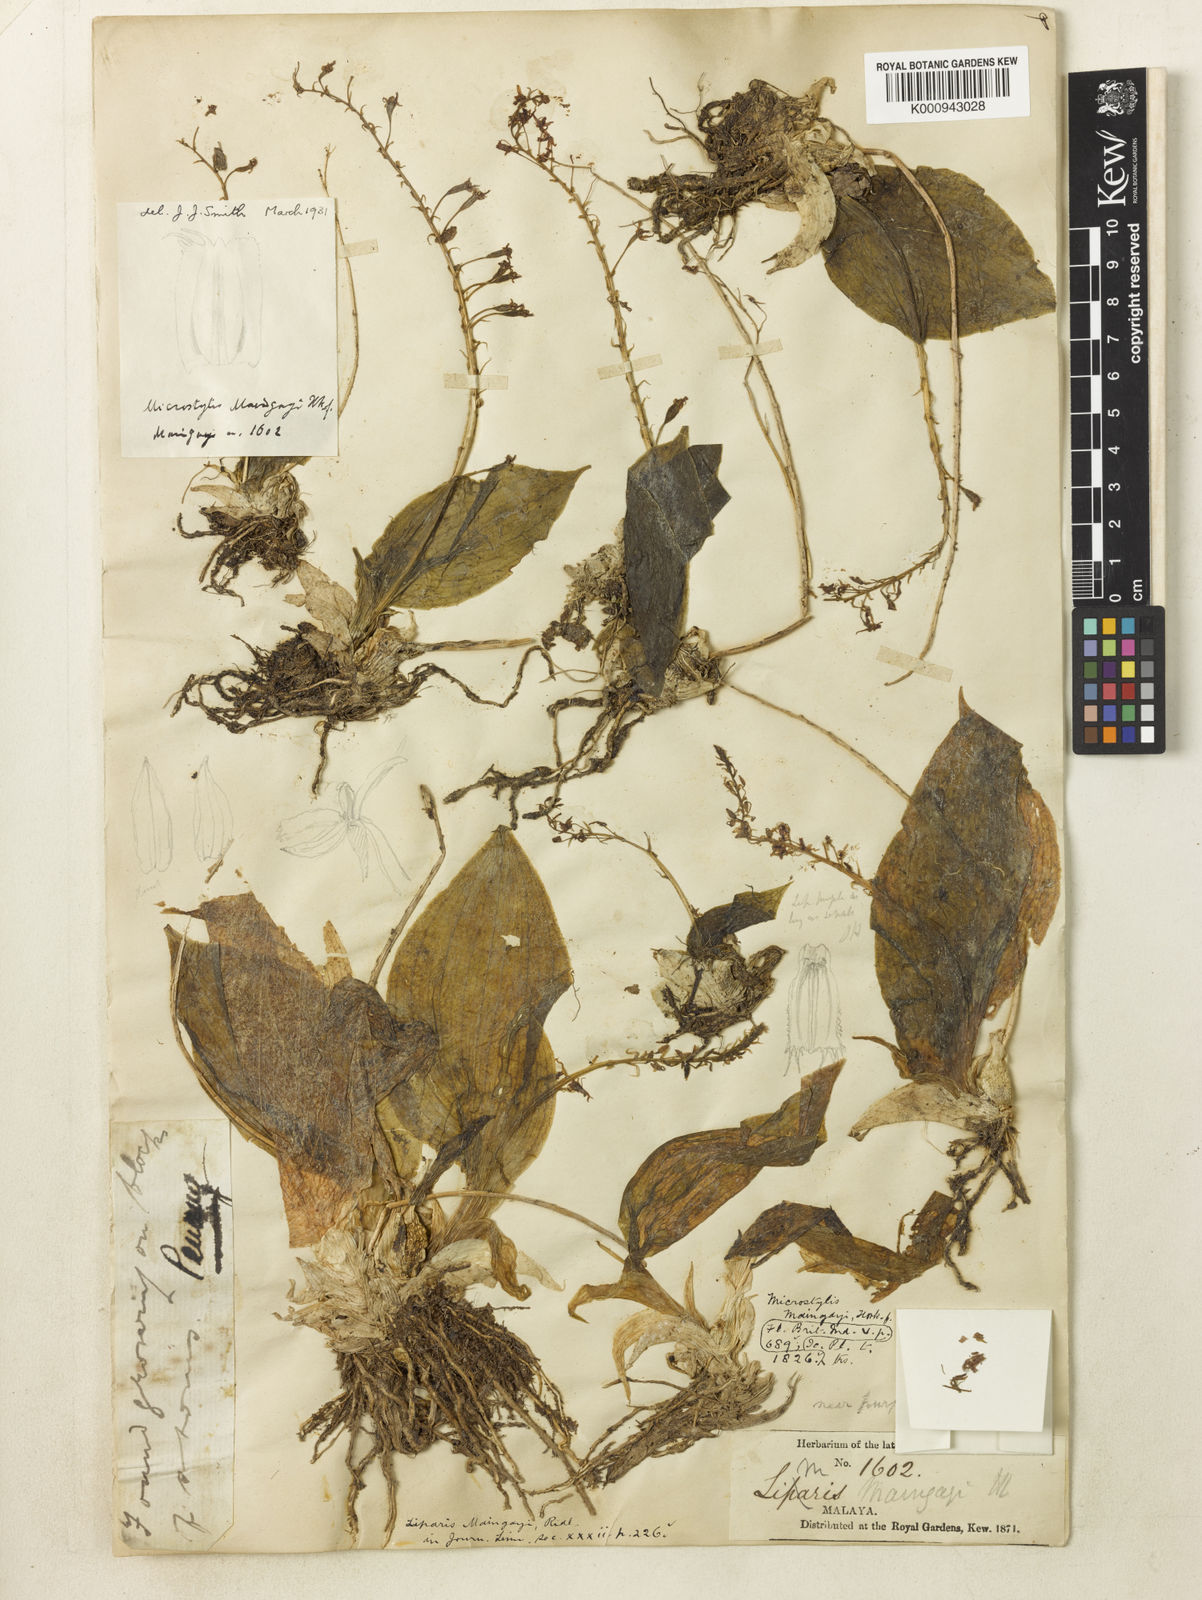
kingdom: Plantae
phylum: Tracheophyta
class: Liliopsida
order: Asparagales
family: Orchidaceae
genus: Oberonioides
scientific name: Oberonioides maingayi
